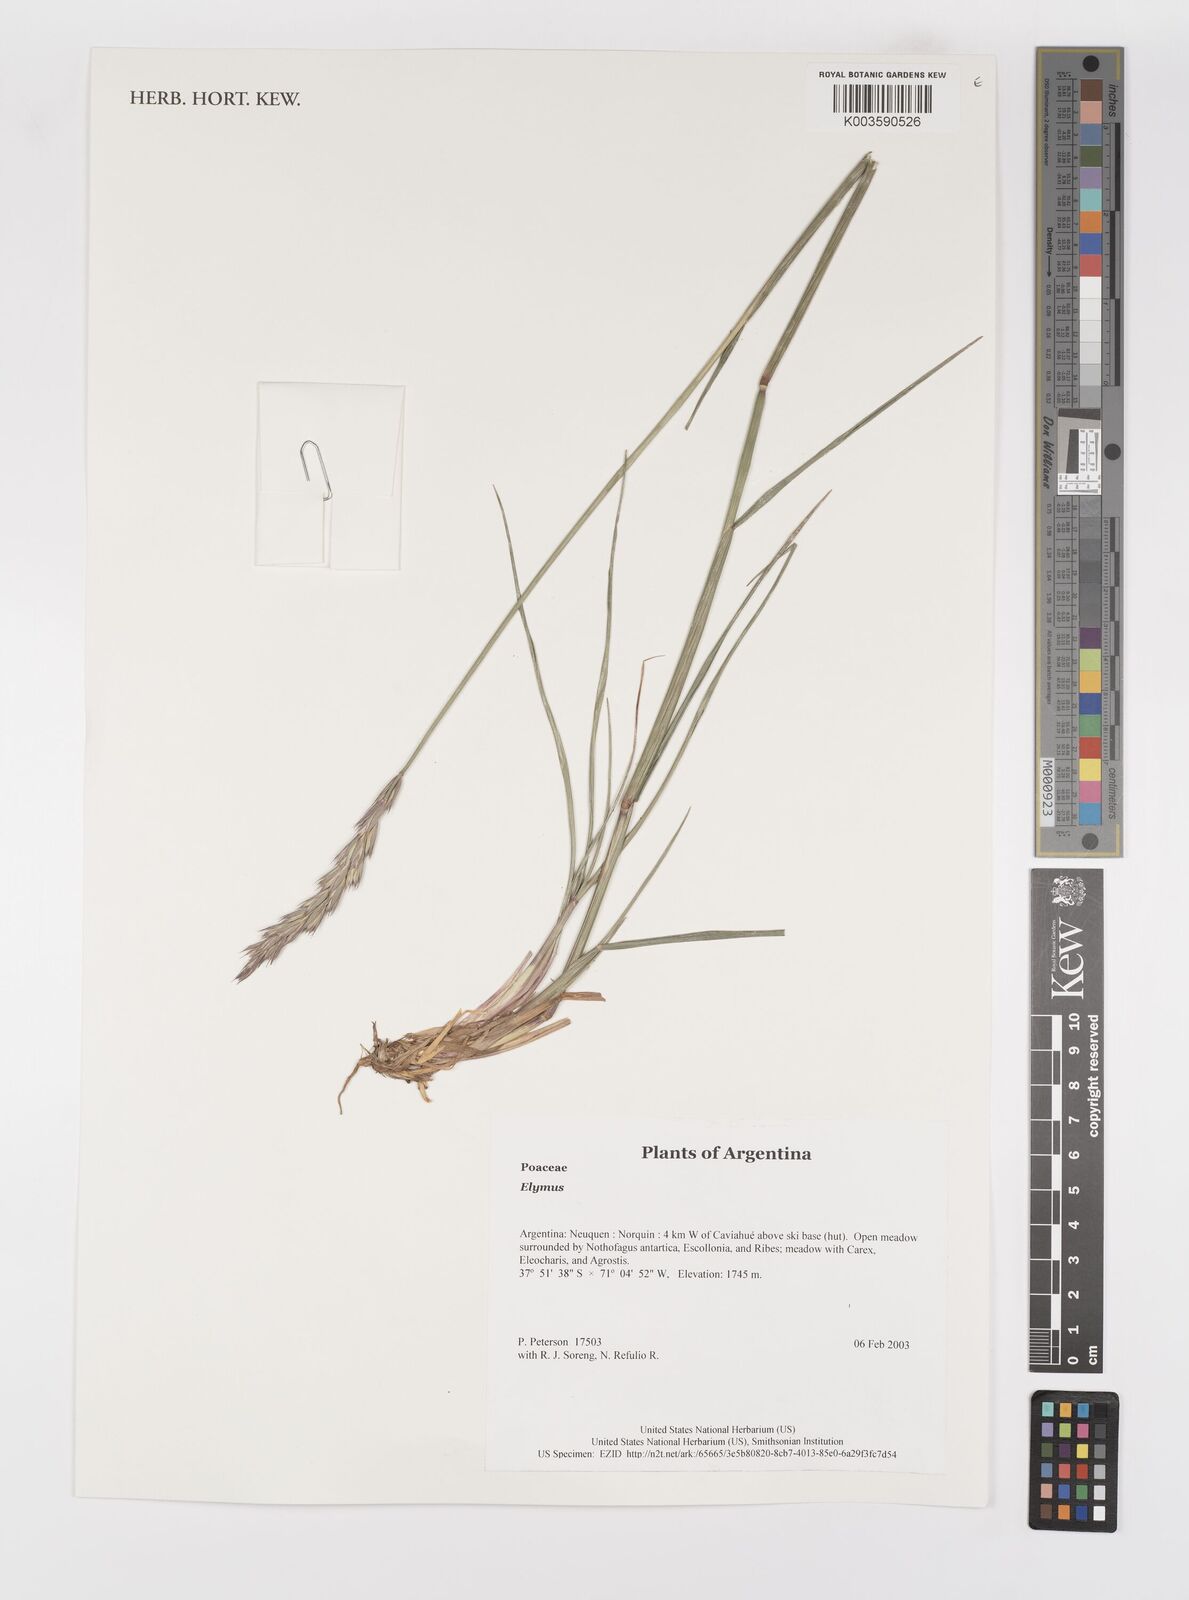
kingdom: Plantae
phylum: Tracheophyta
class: Liliopsida
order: Poales
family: Poaceae
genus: Elymus
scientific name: Elymus
